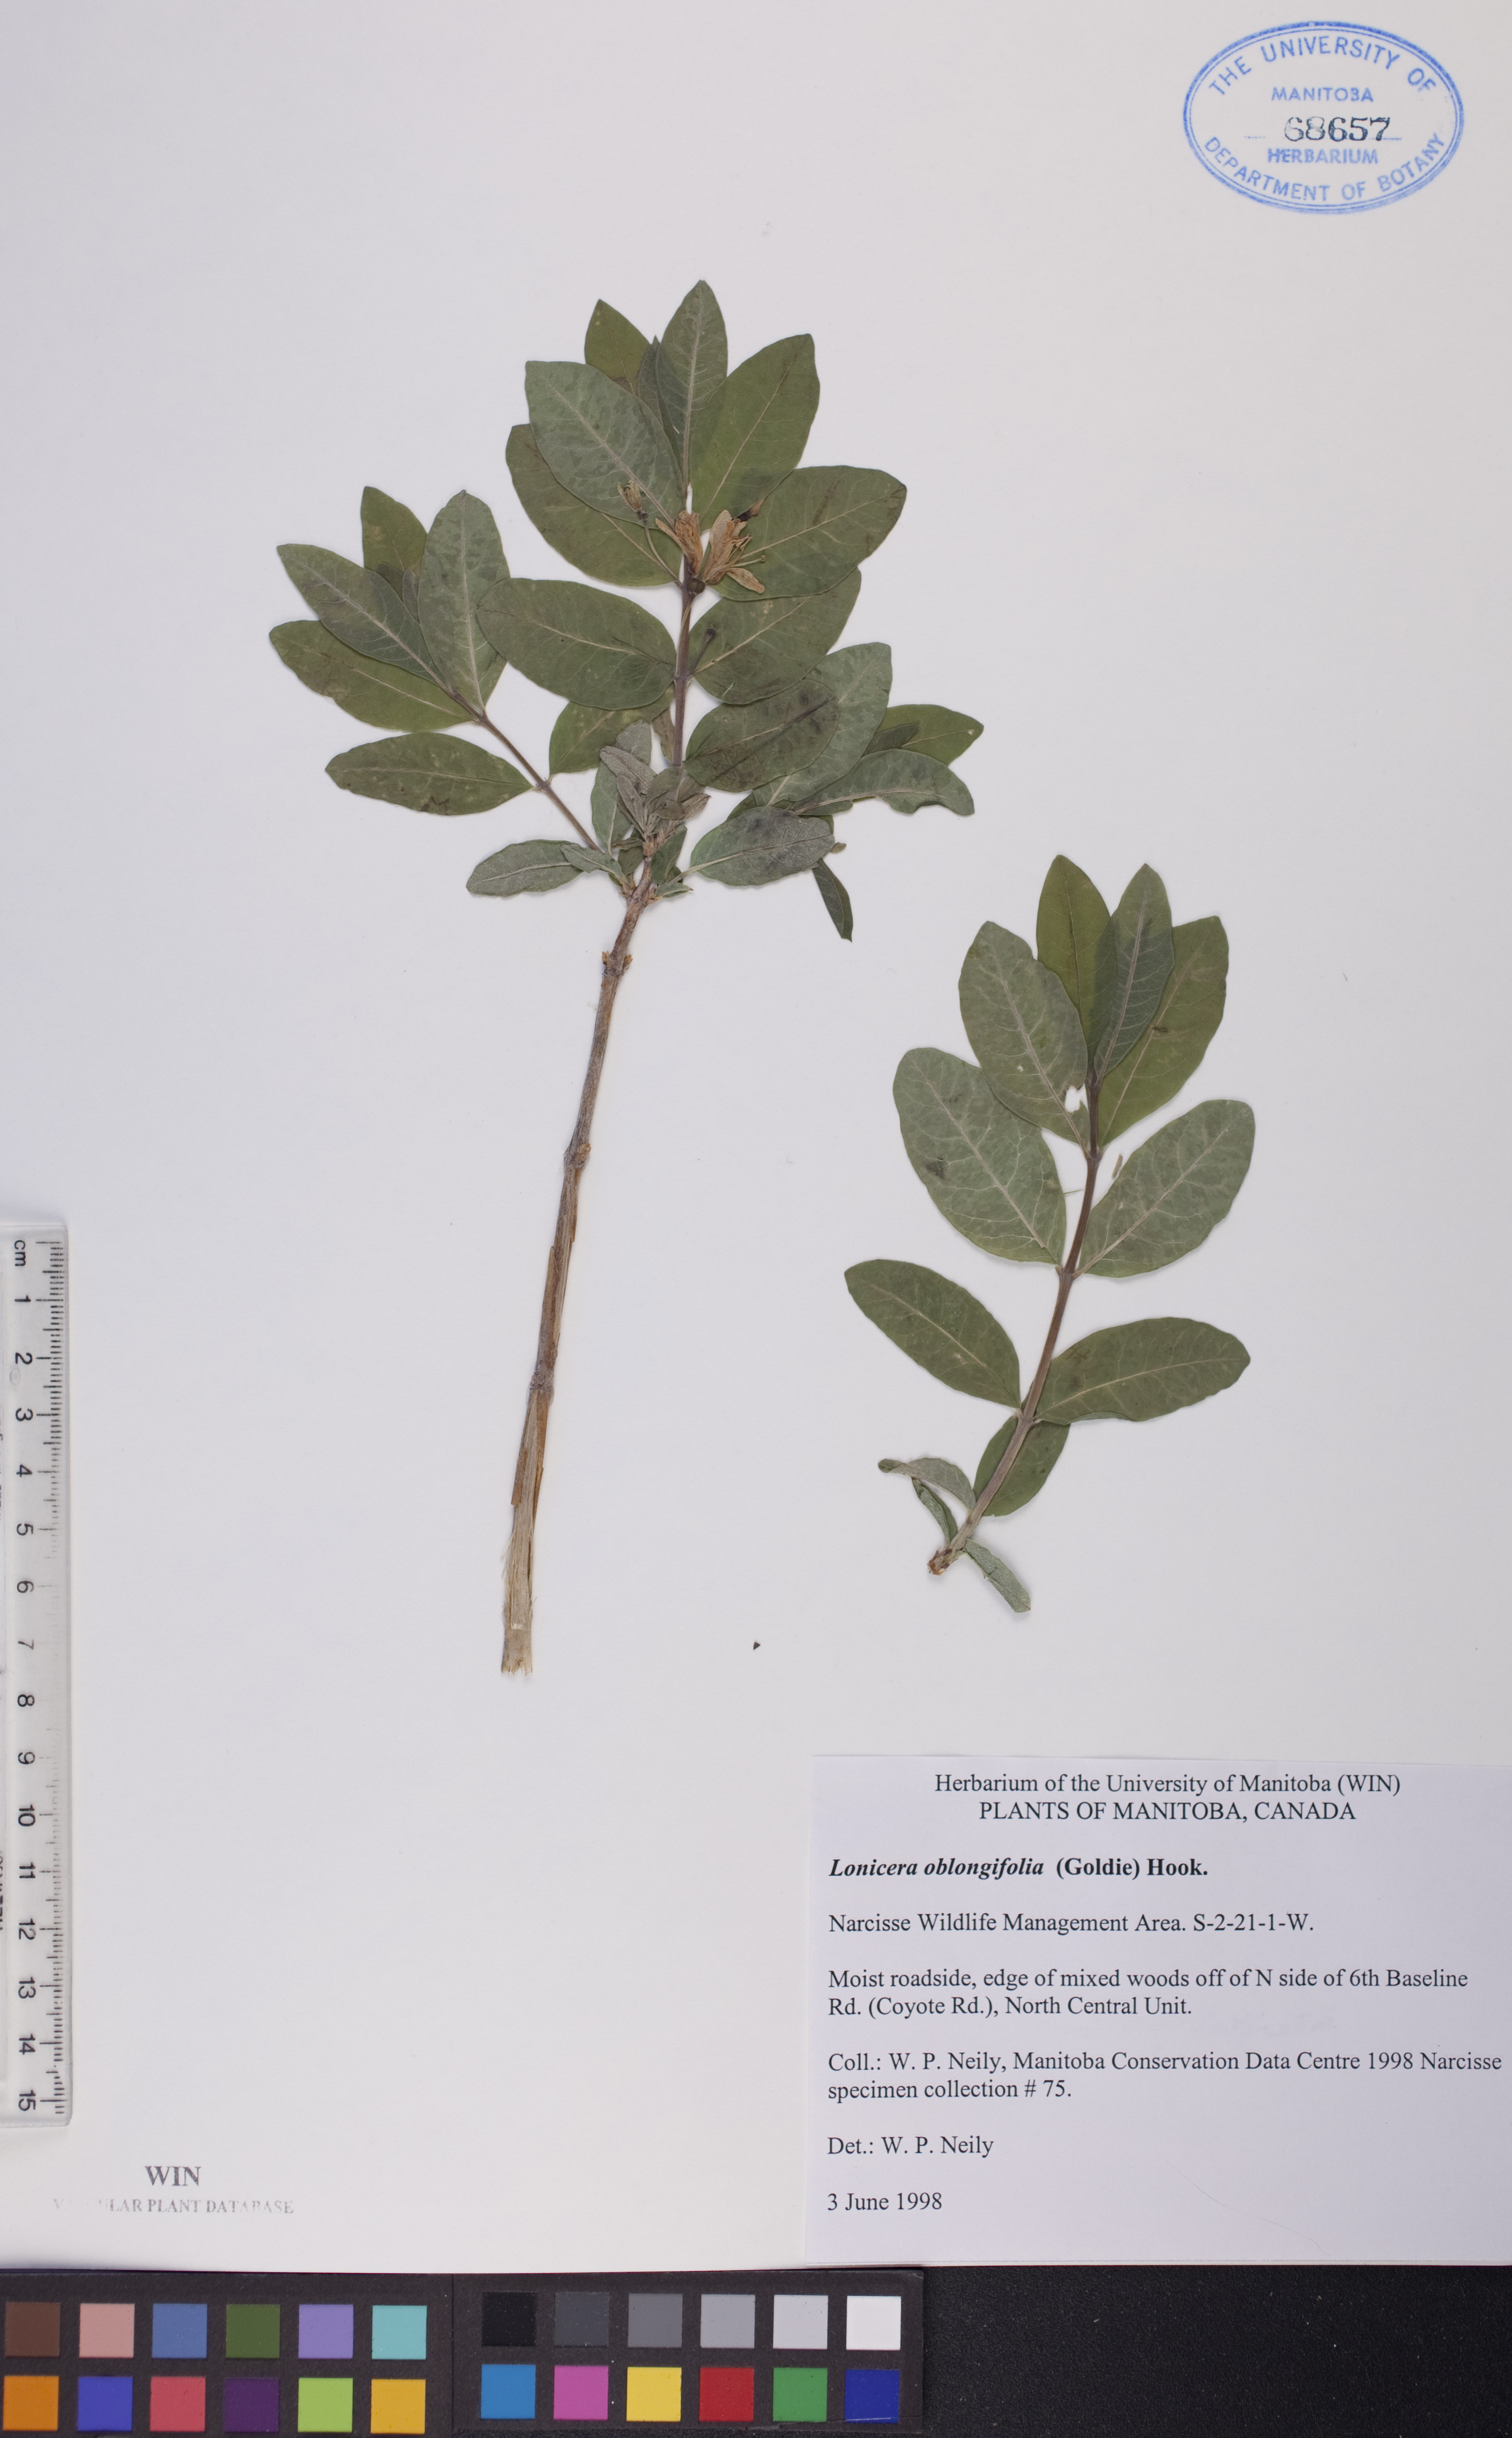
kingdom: Plantae
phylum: Tracheophyta
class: Magnoliopsida
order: Dipsacales
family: Caprifoliaceae
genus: Lonicera
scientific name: Lonicera oblongifolia
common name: Swamp fly honeysuckle
